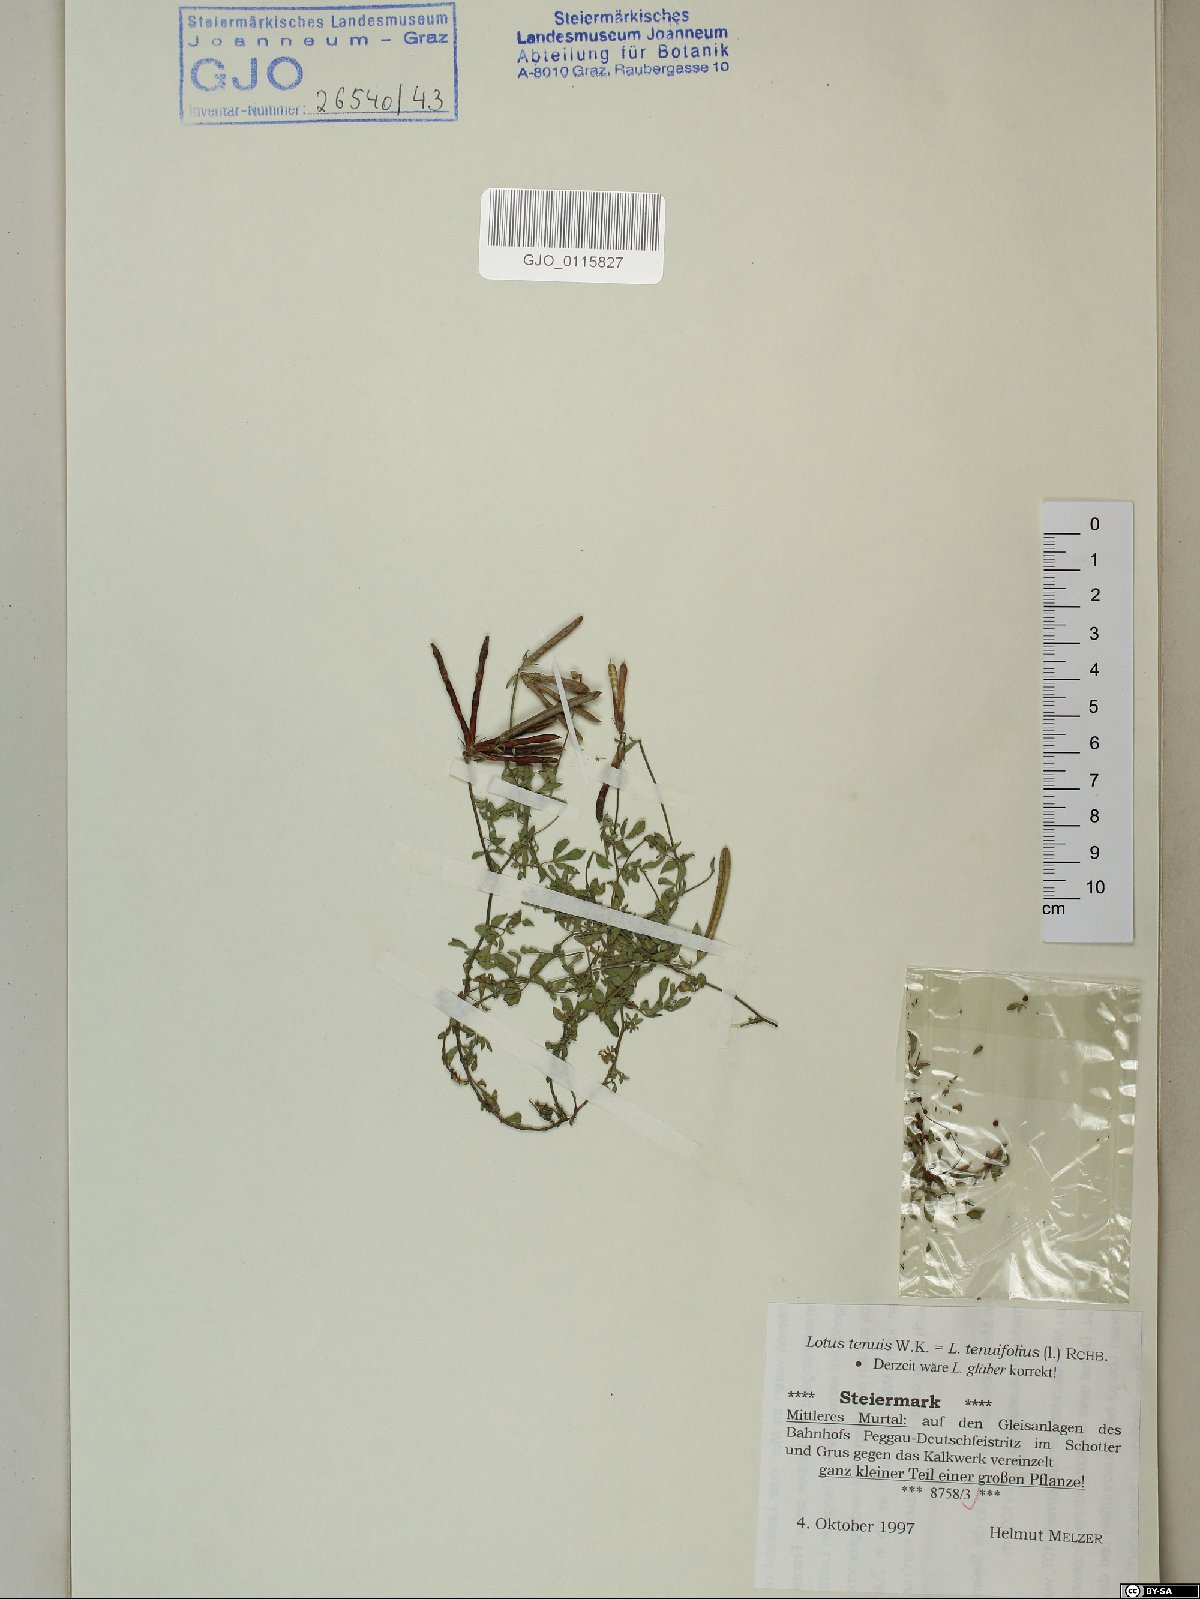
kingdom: Plantae
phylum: Tracheophyta
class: Magnoliopsida
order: Fabales
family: Fabaceae
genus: Lotus
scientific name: Lotus tenuis
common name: Narrow-leaved bird's-foot-trefoil
